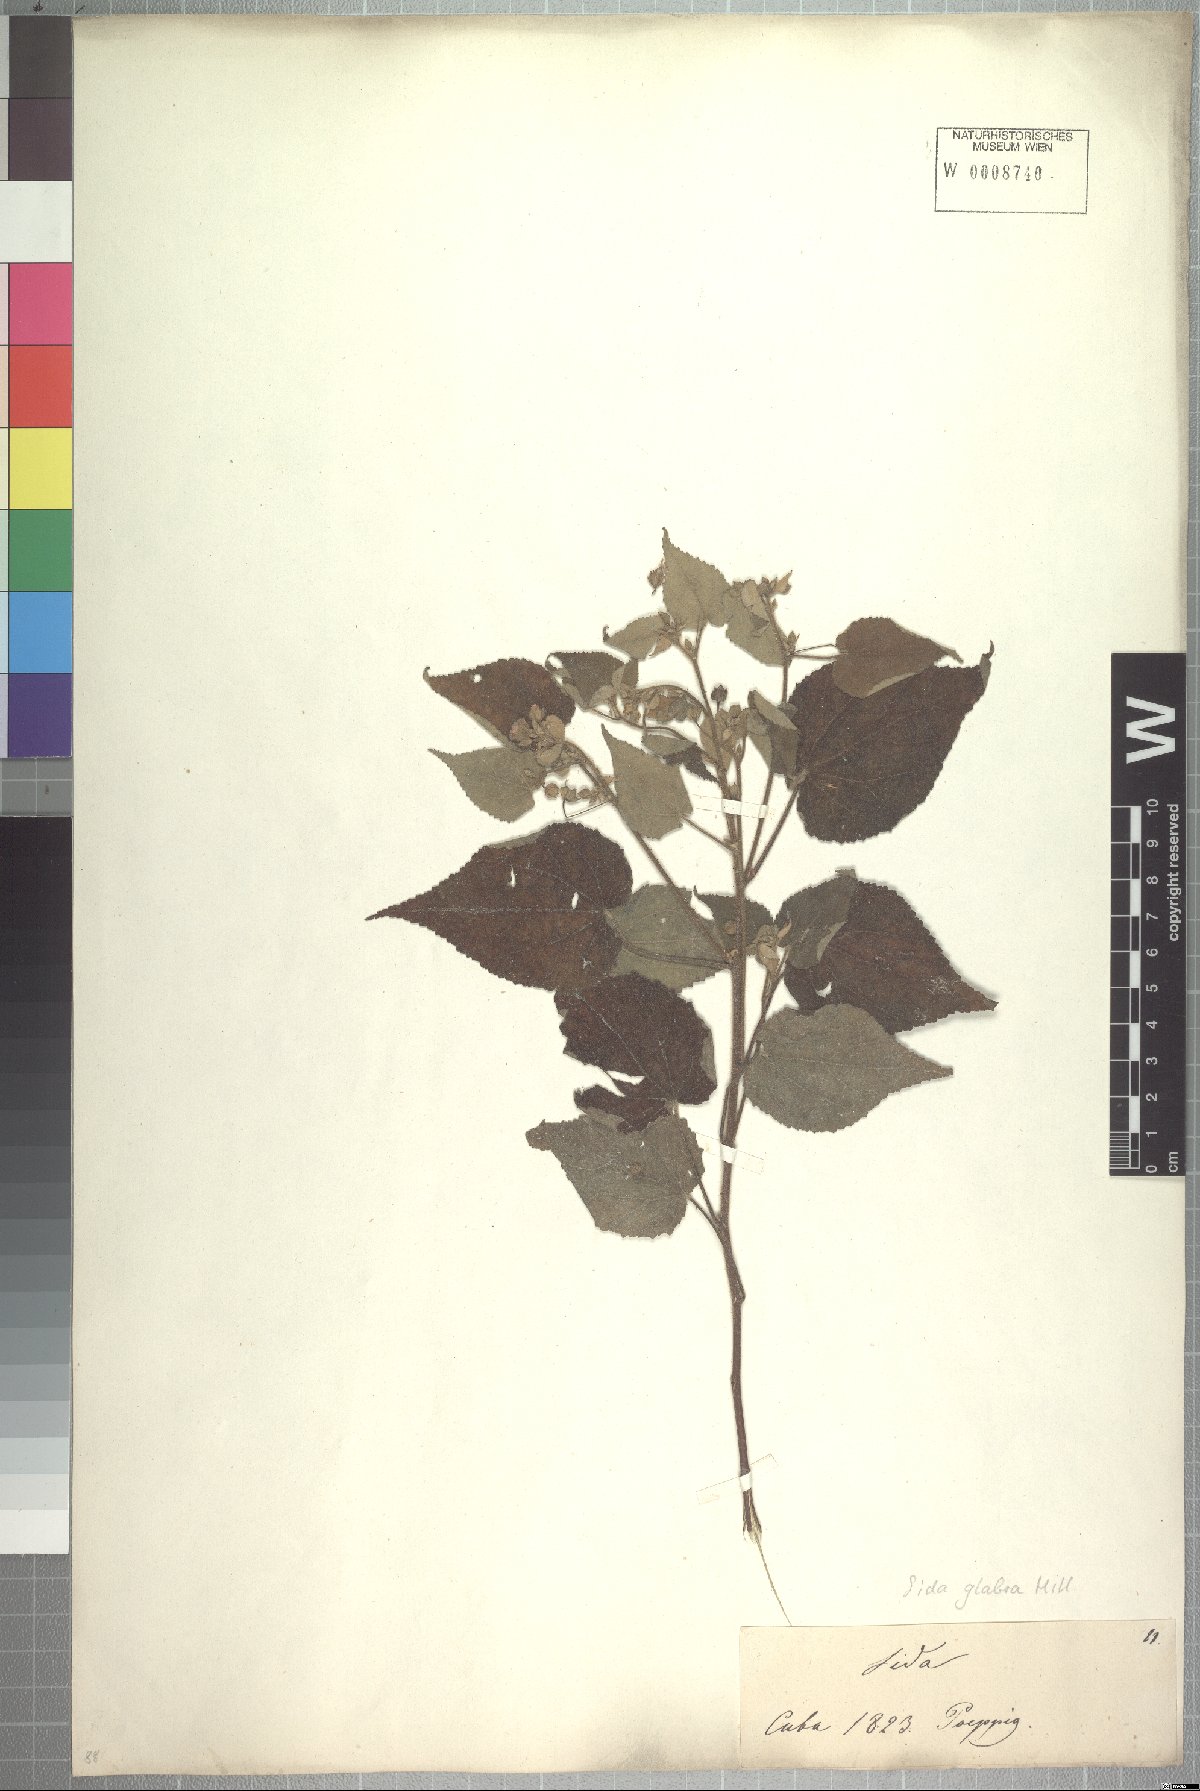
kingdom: Plantae
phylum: Tracheophyta
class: Magnoliopsida
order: Malvales
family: Malvaceae
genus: Sida
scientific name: Sida glabra
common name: Smooth fanpetals
